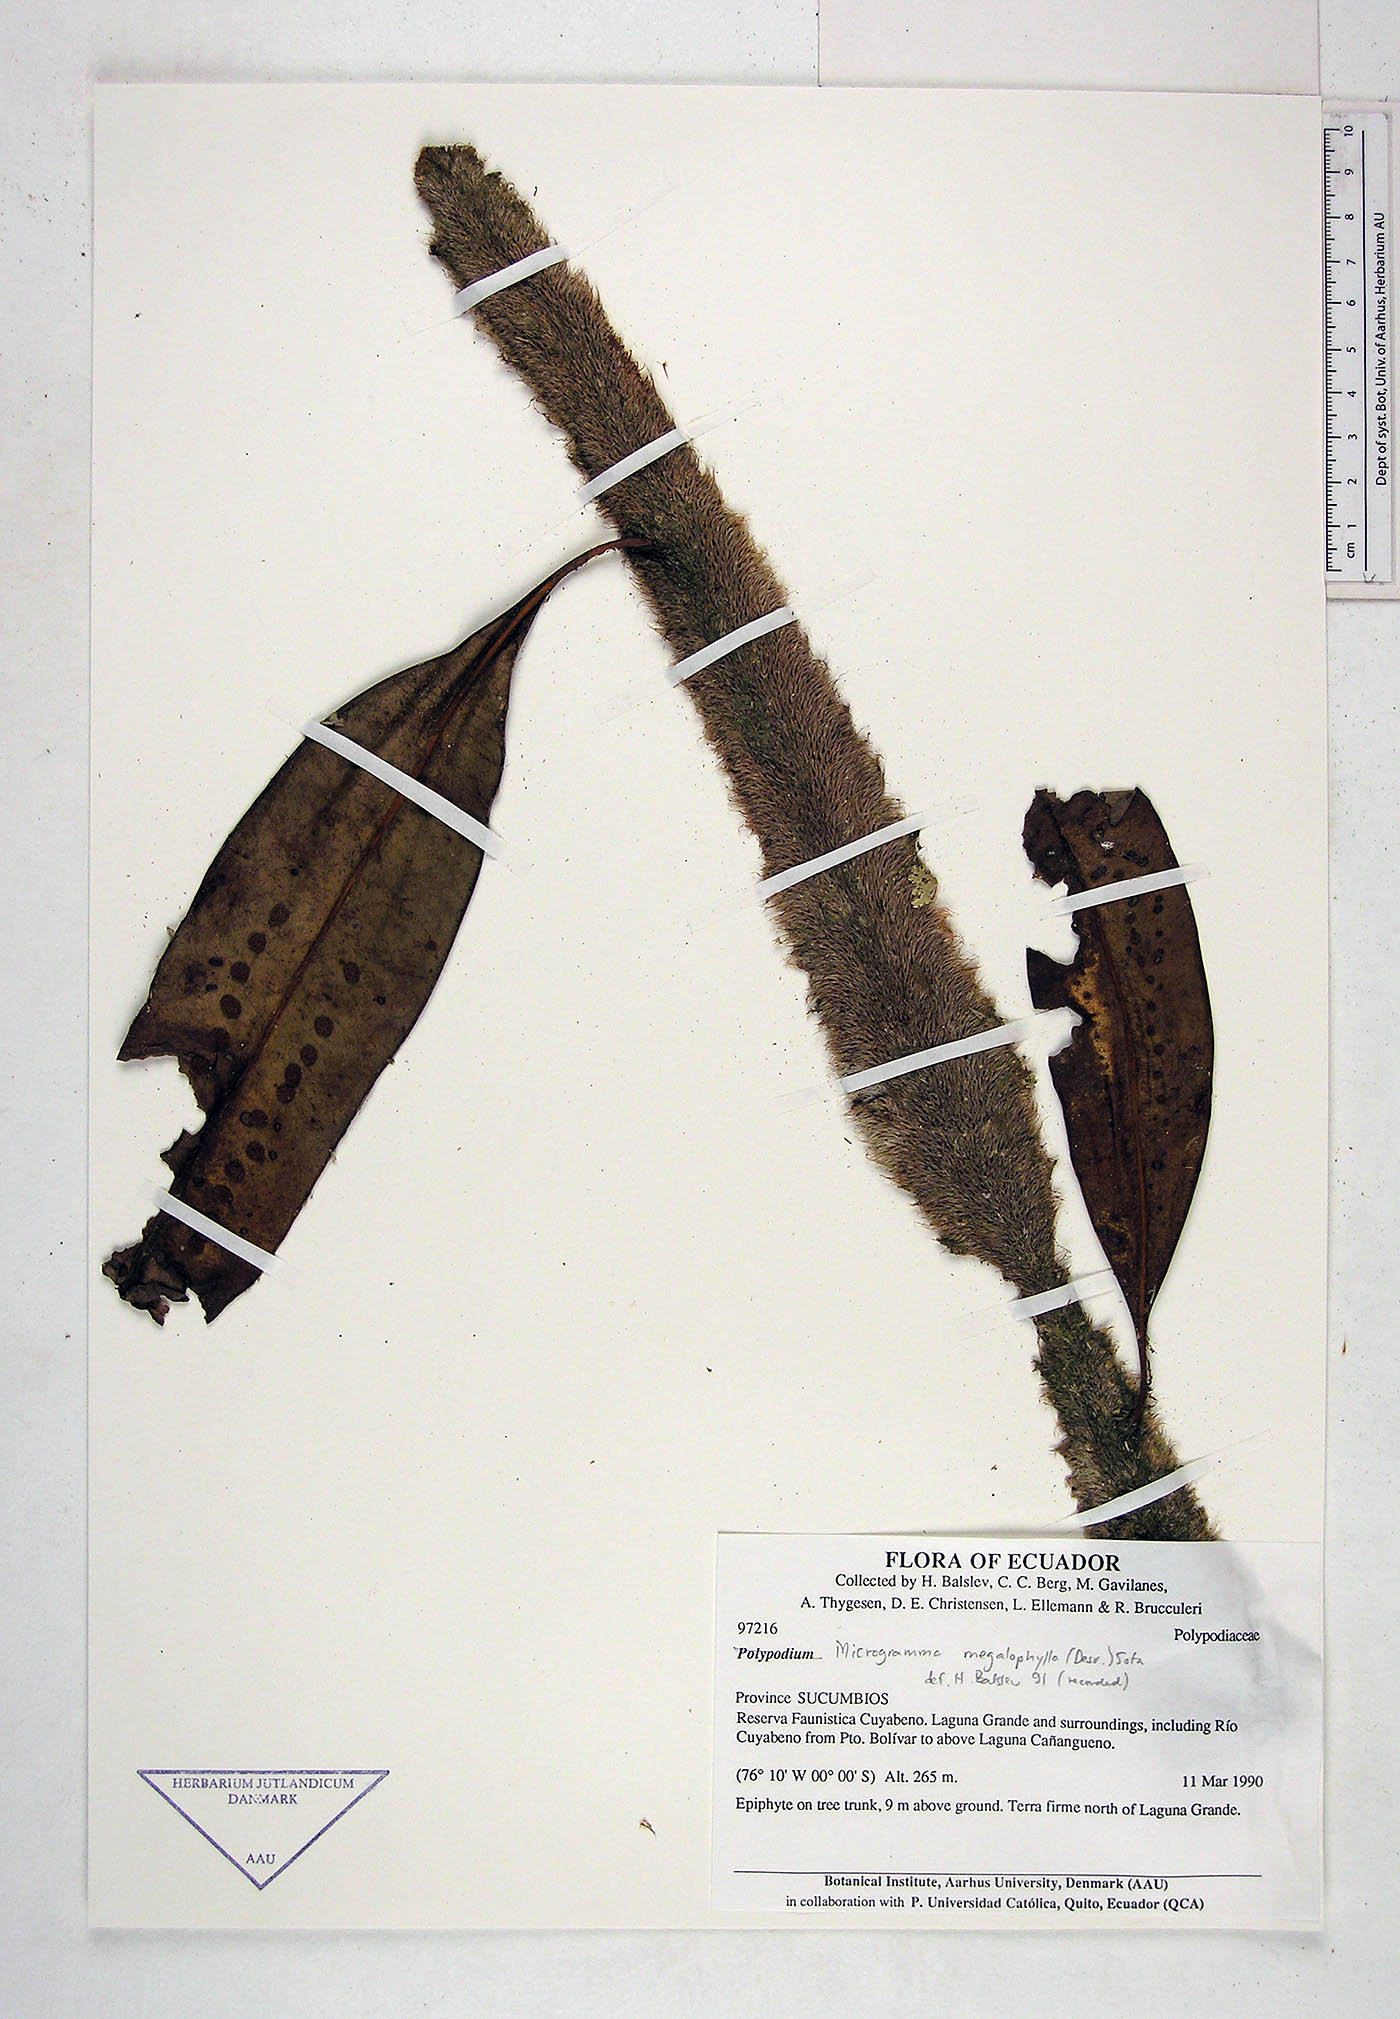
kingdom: Plantae
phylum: Tracheophyta
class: Polypodiopsida
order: Polypodiales
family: Polypodiaceae
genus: Microgramma
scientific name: Microgramma megalophylla
